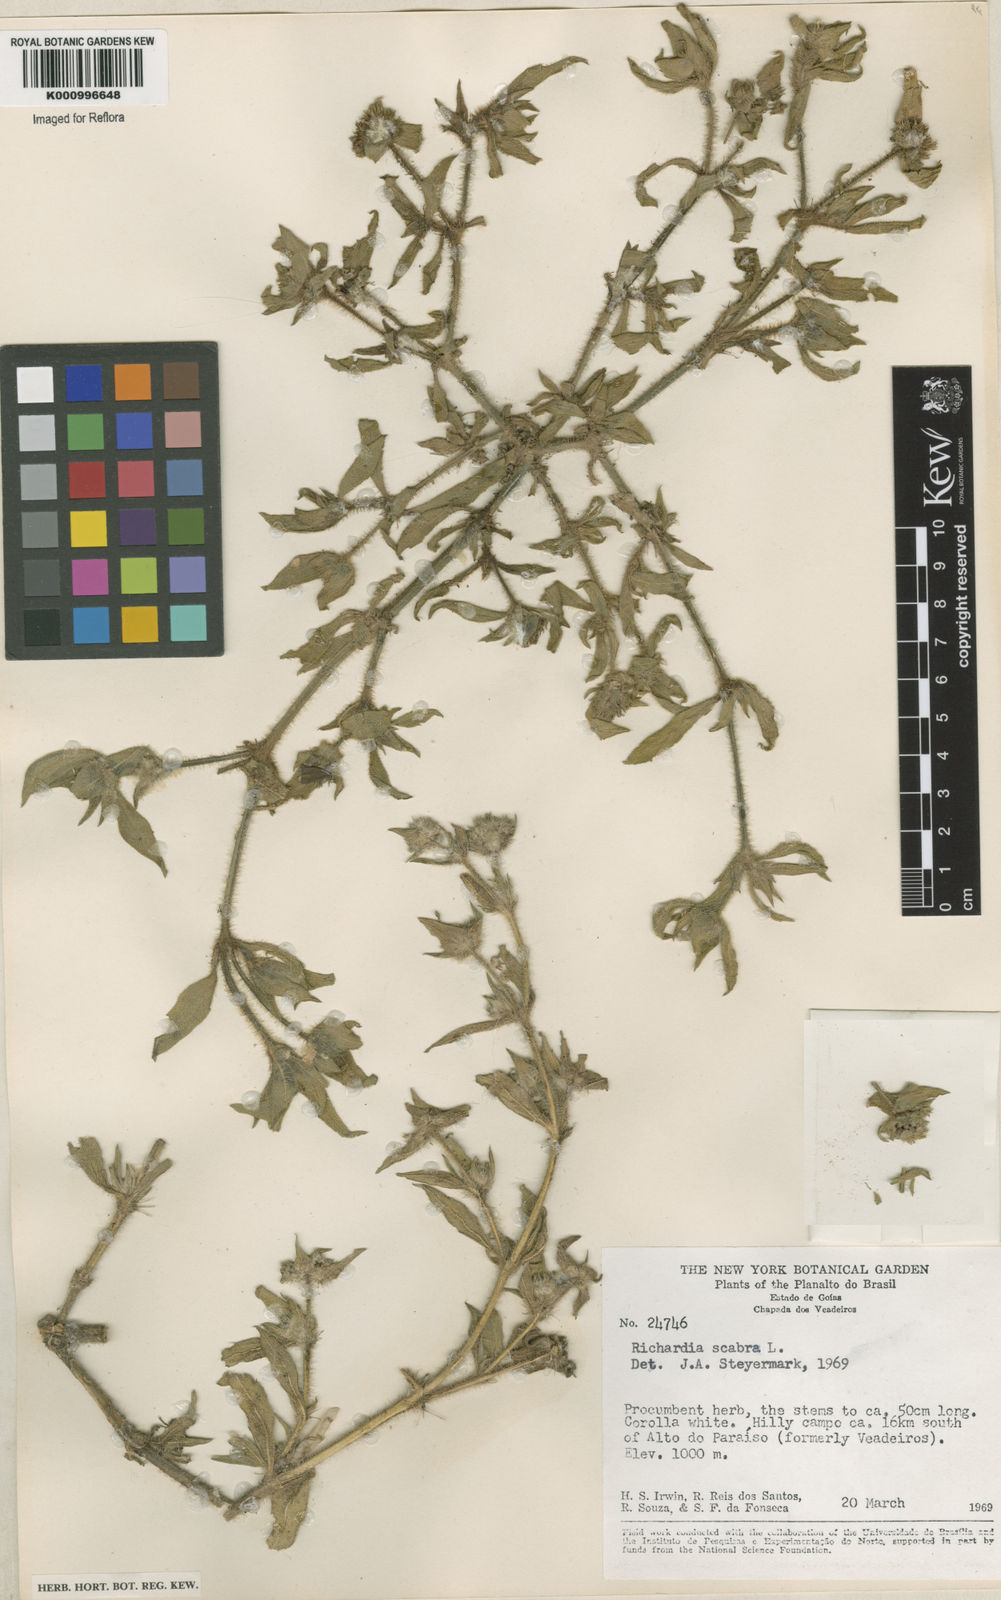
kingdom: Plantae
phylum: Tracheophyta
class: Magnoliopsida
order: Gentianales
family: Rubiaceae
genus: Richardia
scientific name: Richardia scabra
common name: Rough mexican clover
